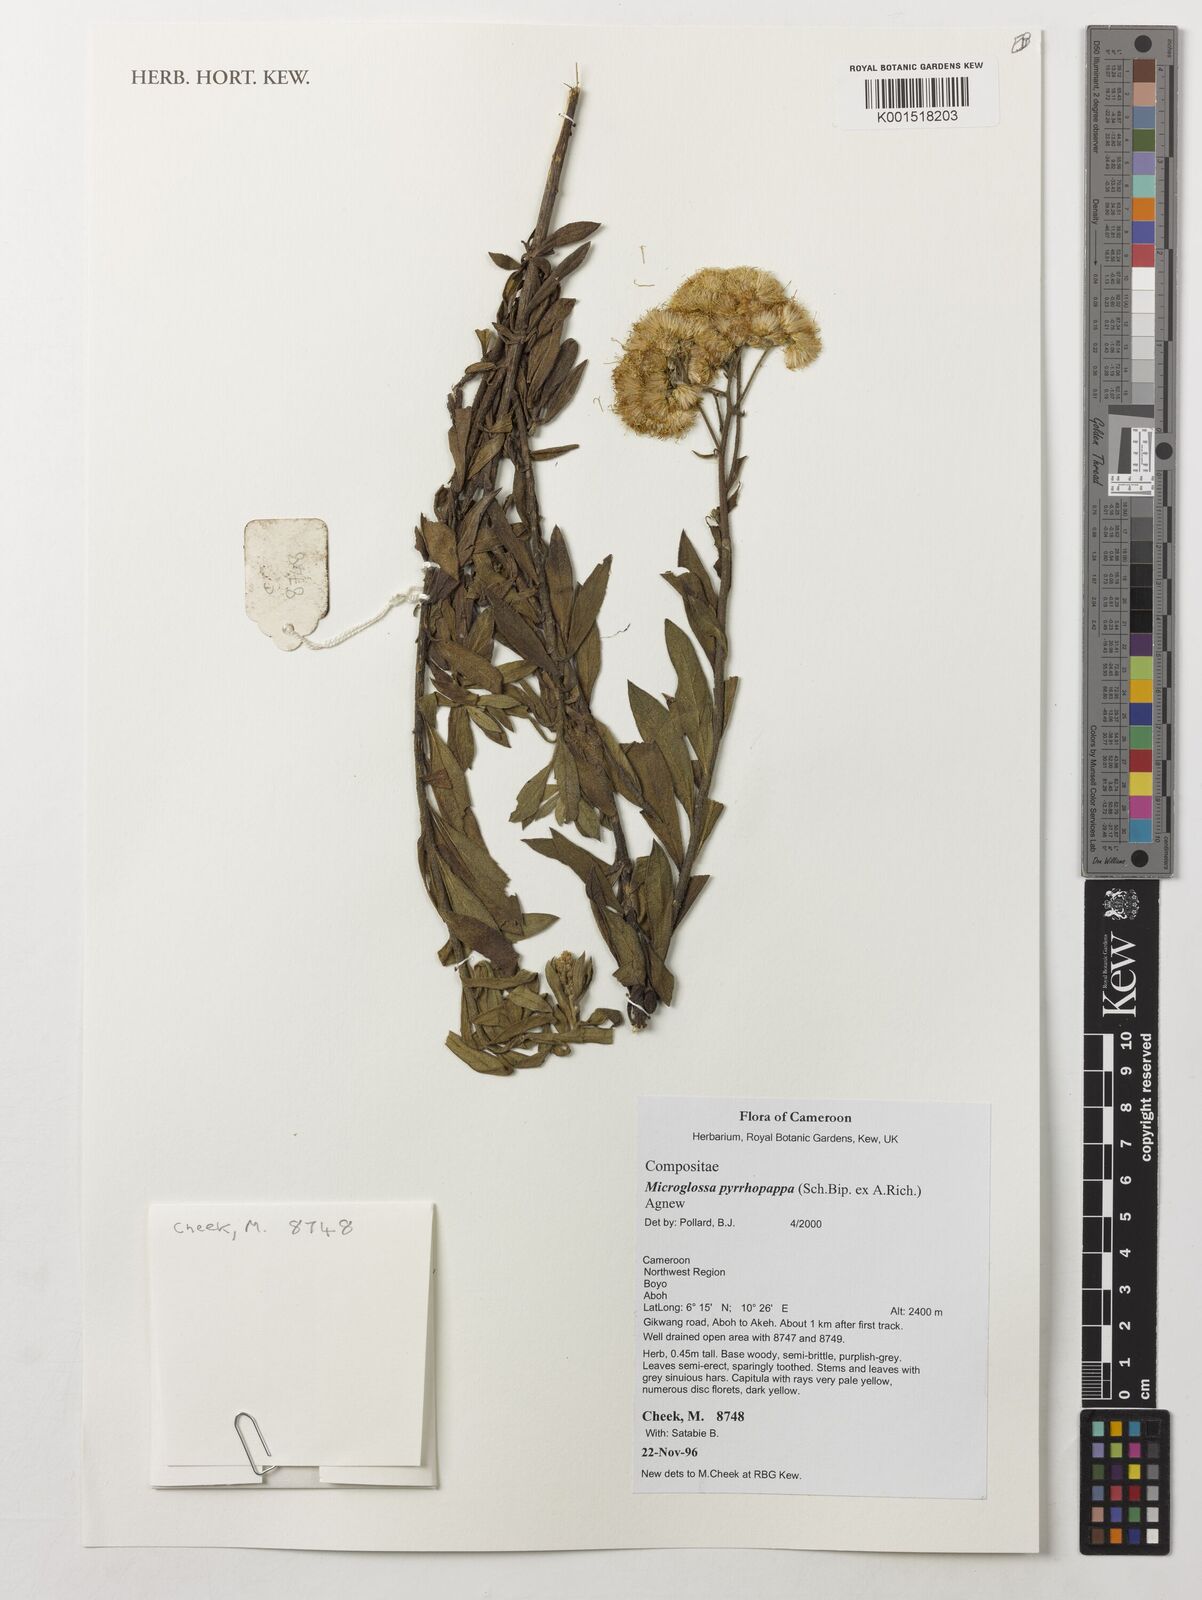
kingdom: Plantae
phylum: Tracheophyta
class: Magnoliopsida
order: Asterales
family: Asteraceae
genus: Microglossa
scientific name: Microglossa pyrrhopappa
